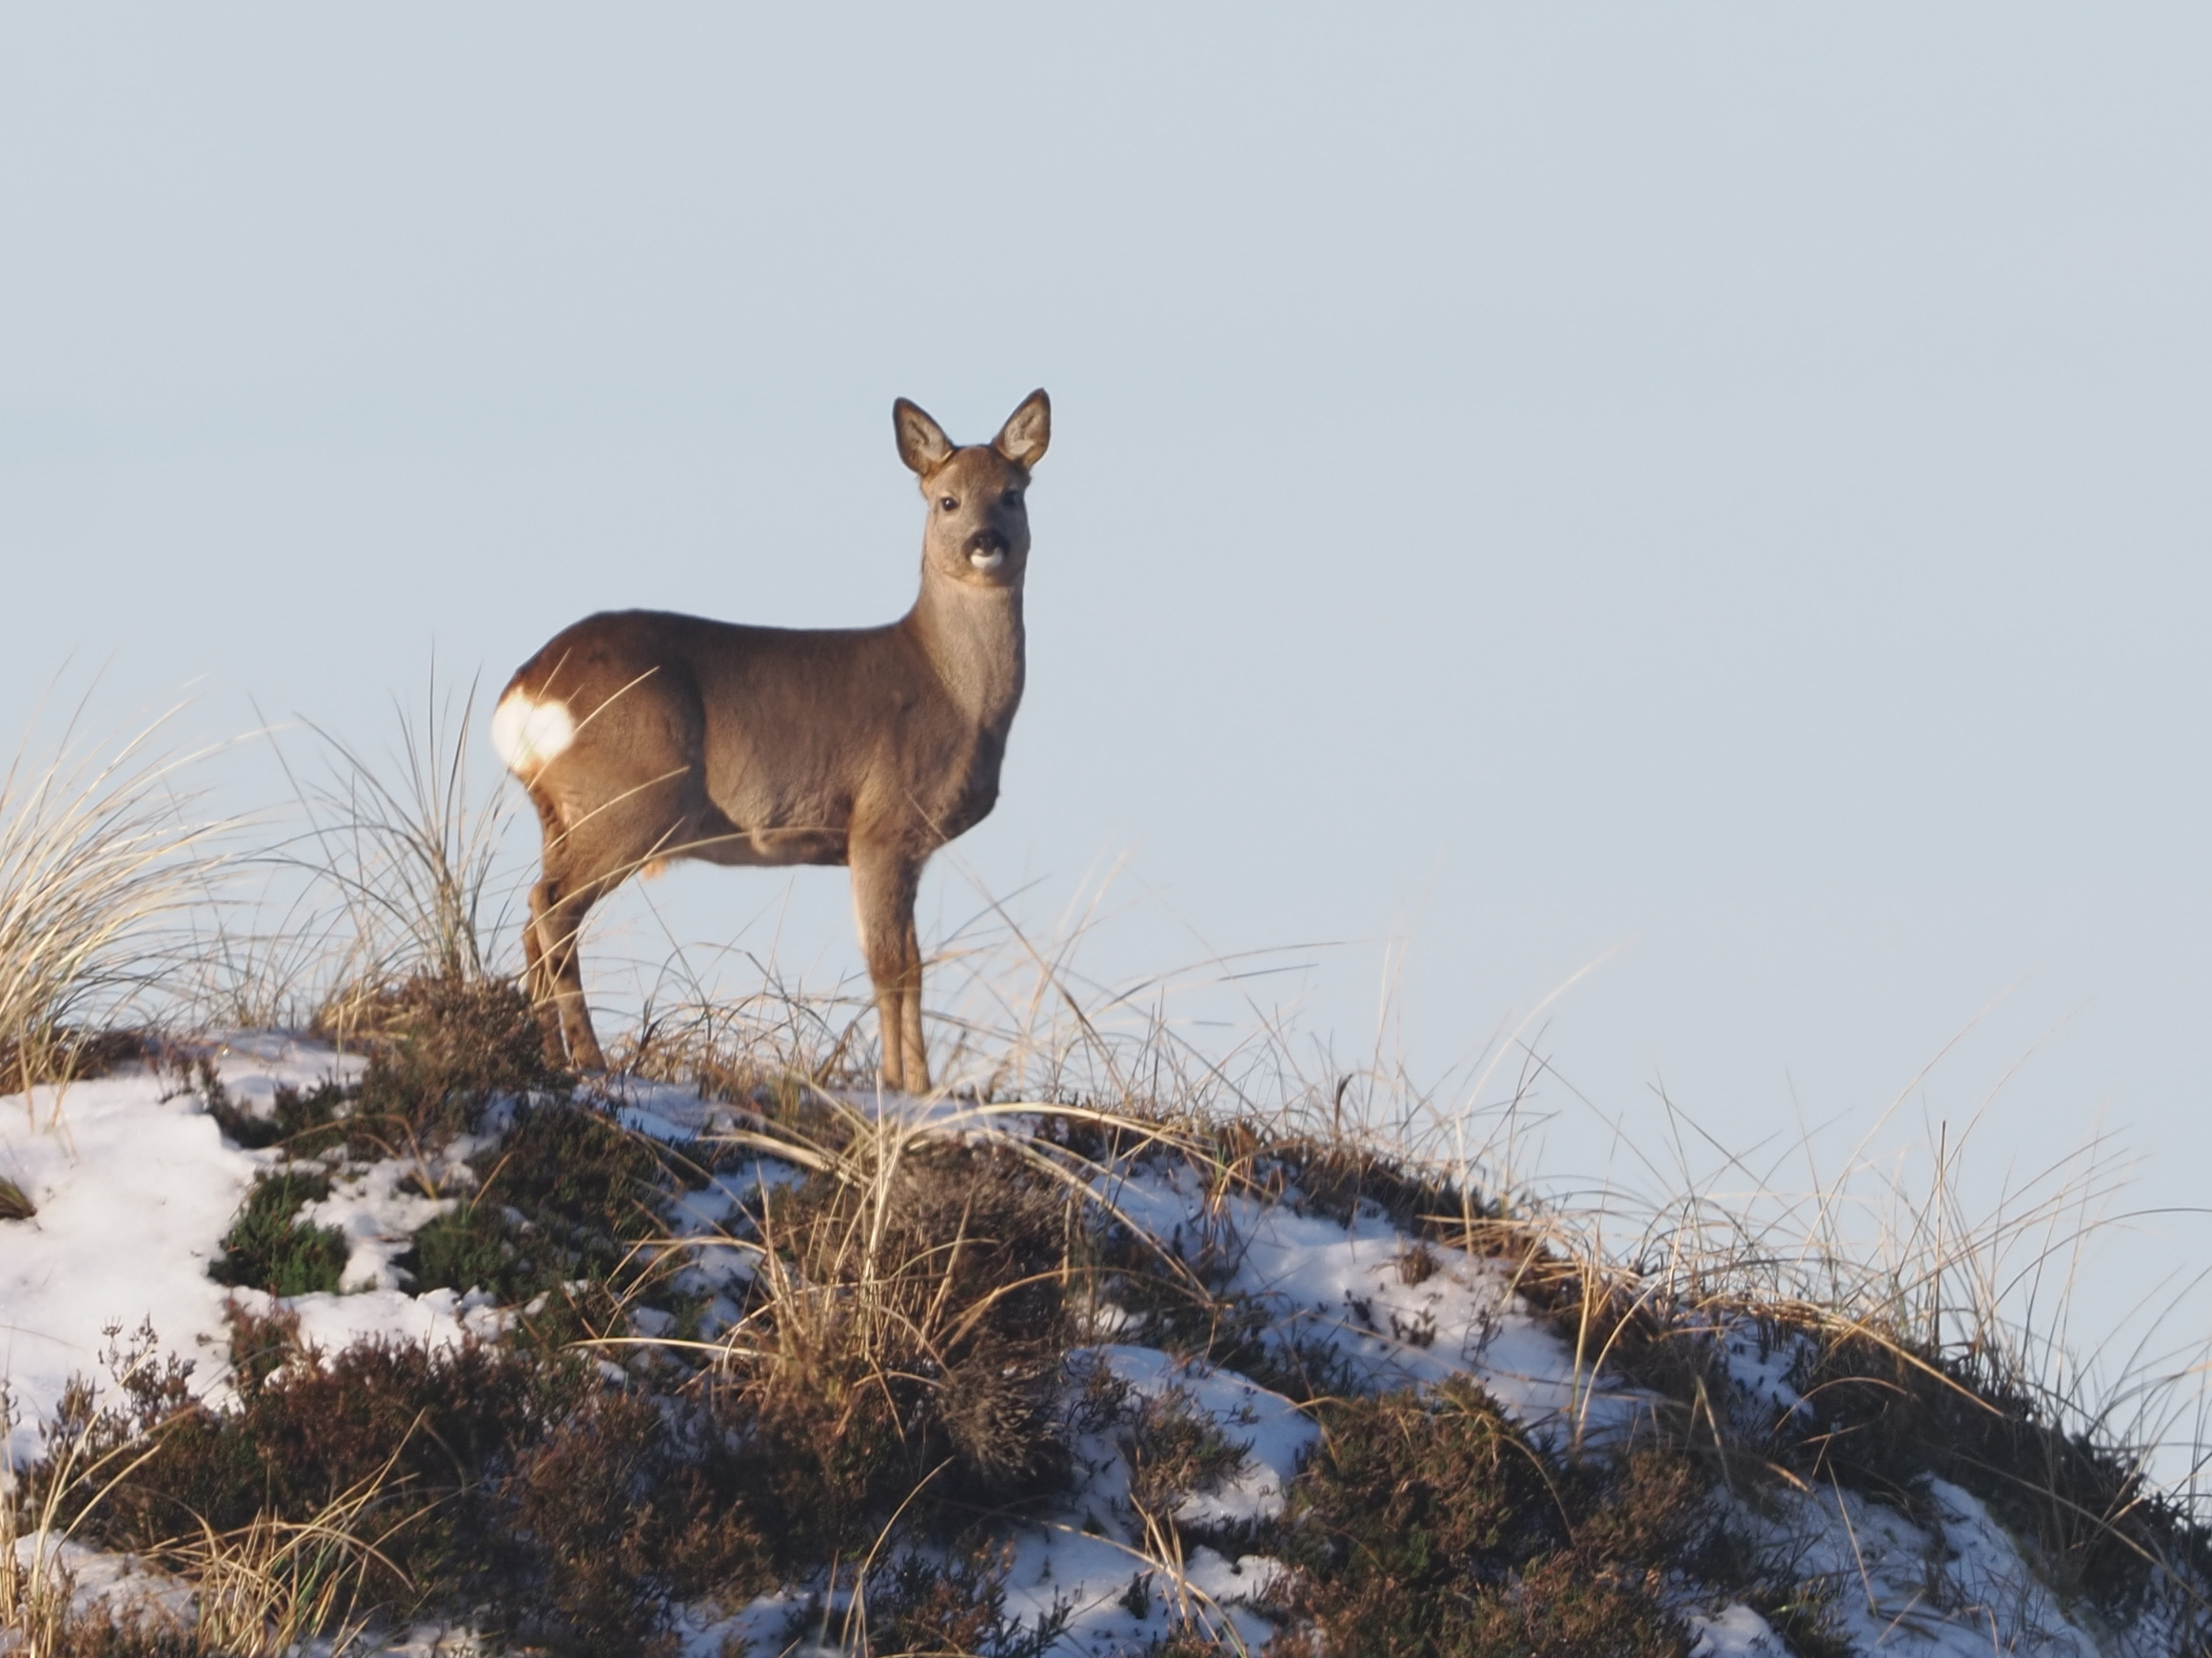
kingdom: Animalia
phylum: Chordata
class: Mammalia
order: Artiodactyla
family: Cervidae
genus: Capreolus
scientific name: Capreolus capreolus
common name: Rådyr
